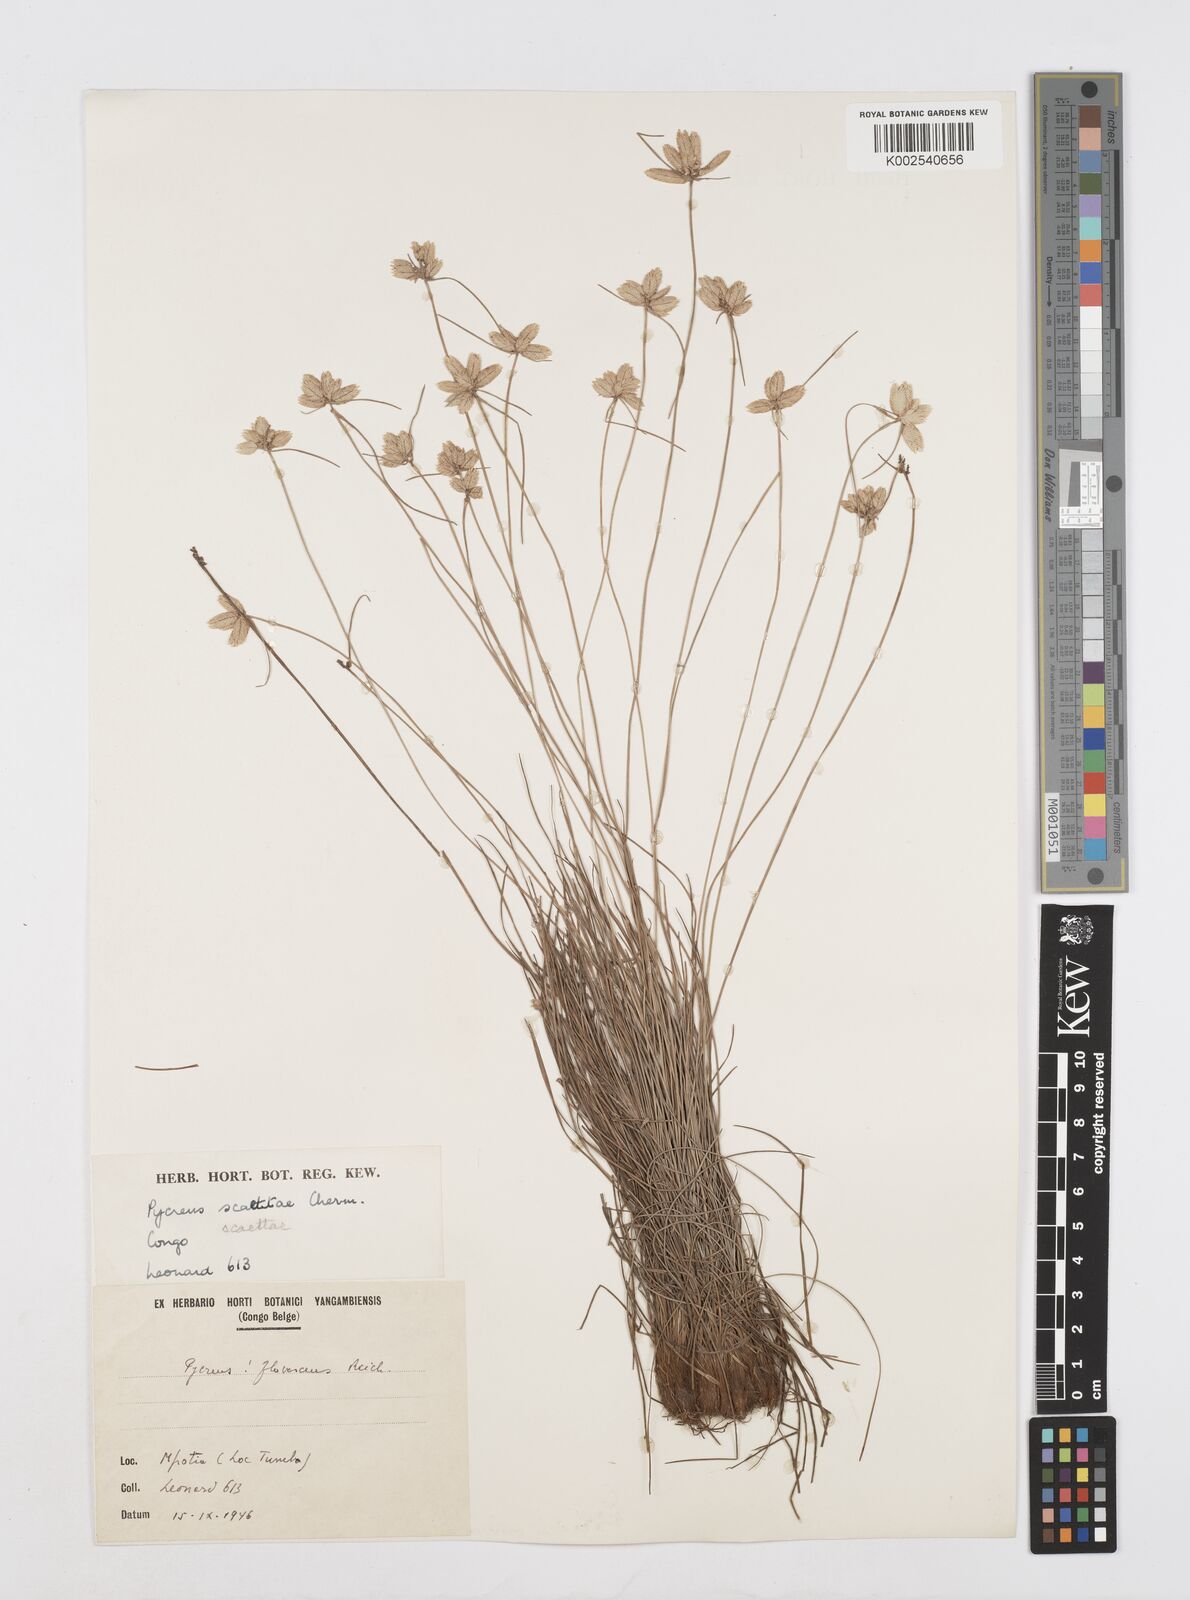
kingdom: Plantae
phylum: Tracheophyta
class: Liliopsida
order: Poales
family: Cyperaceae
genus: Cyperus
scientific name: Cyperus scaettae
